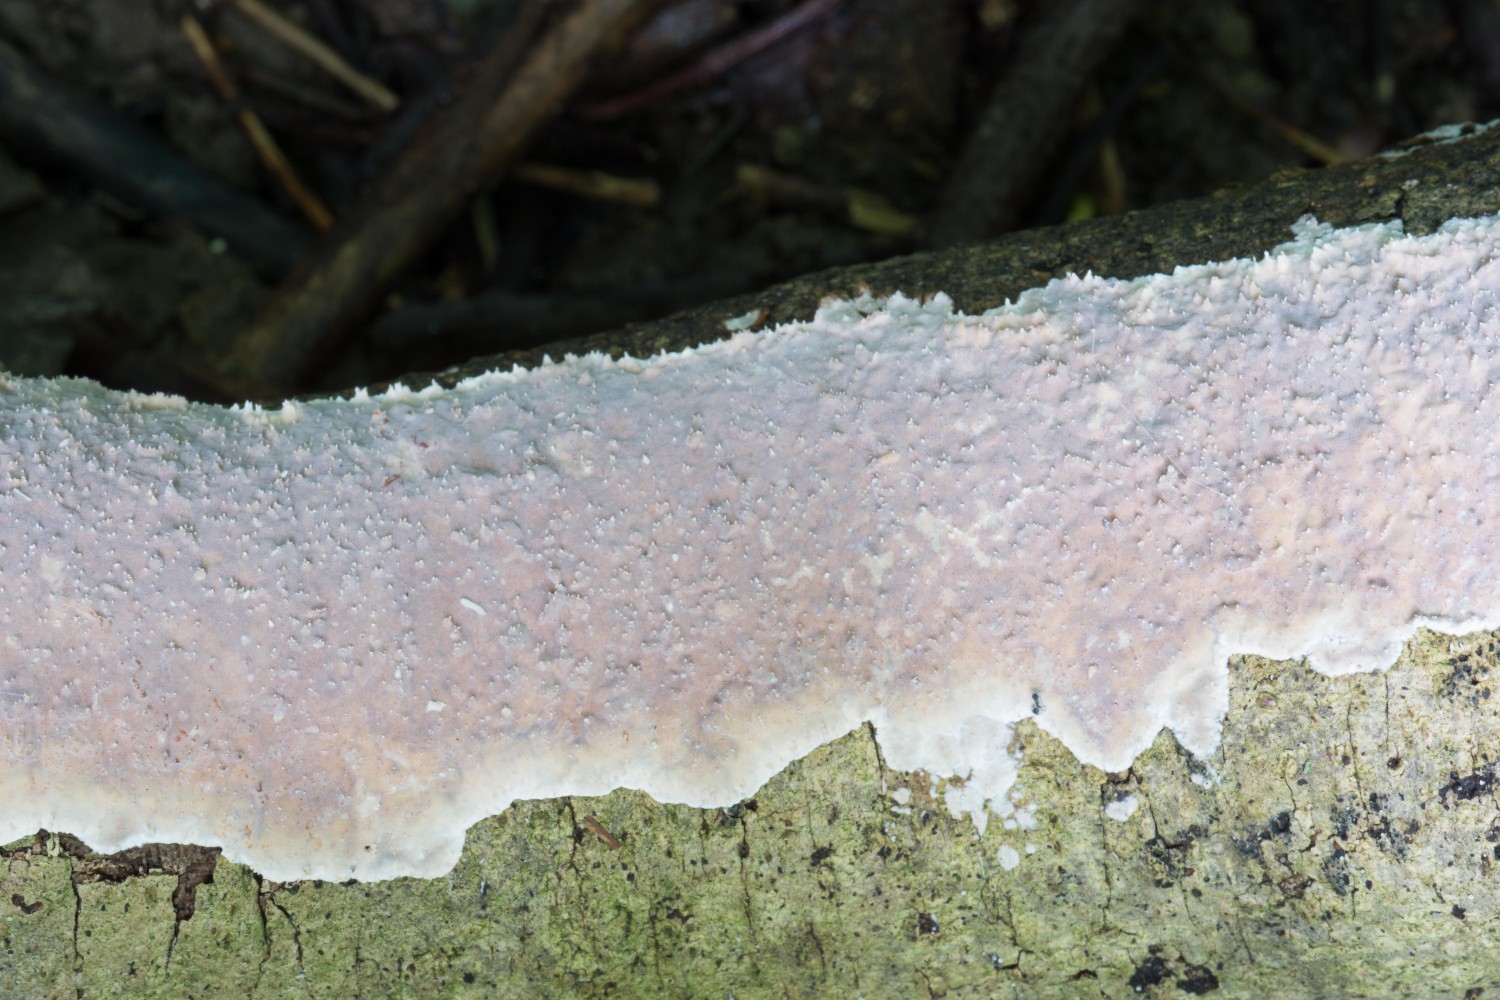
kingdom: Fungi
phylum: Basidiomycota
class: Agaricomycetes
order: Auriculariales
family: Auriculariaceae
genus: Heteroradulum
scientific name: Heteroradulum deglubens
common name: bævreskorpe
